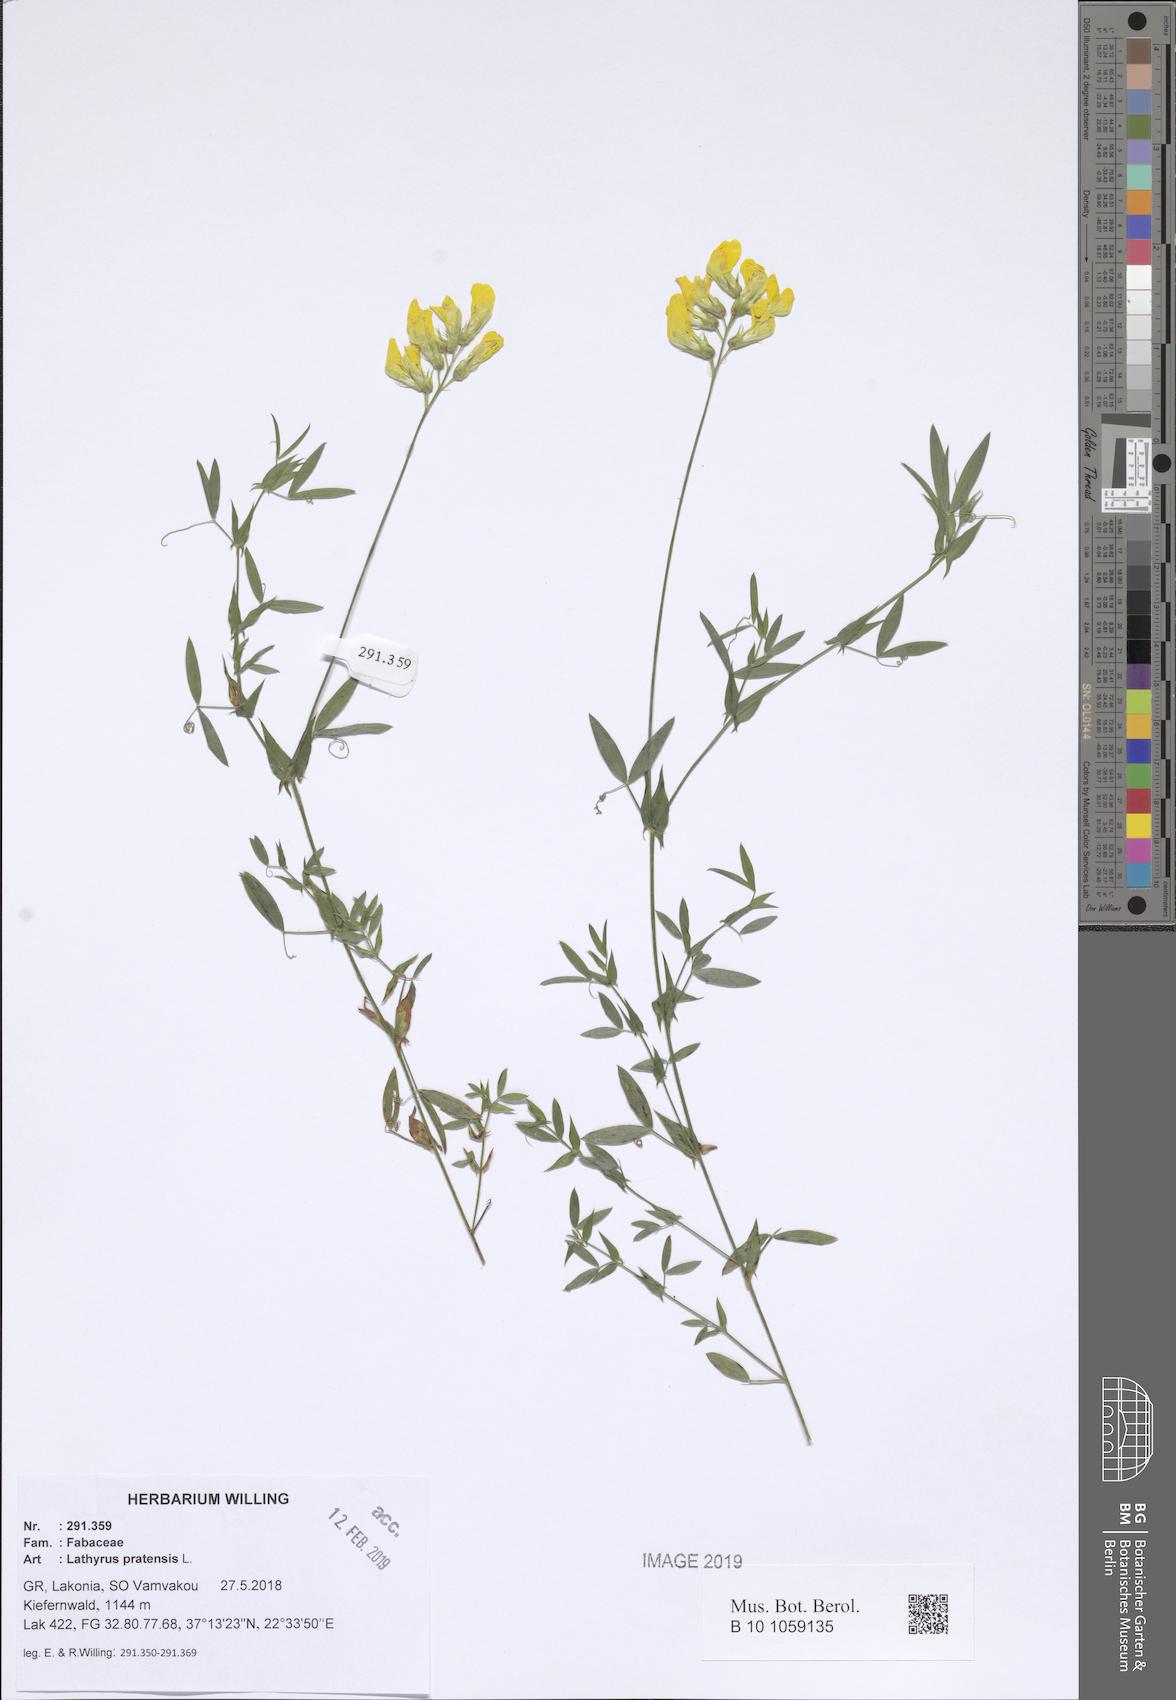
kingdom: Plantae
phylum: Tracheophyta
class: Magnoliopsida
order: Fabales
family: Fabaceae
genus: Lathyrus
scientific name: Lathyrus pratensis
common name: Meadow vetchling
